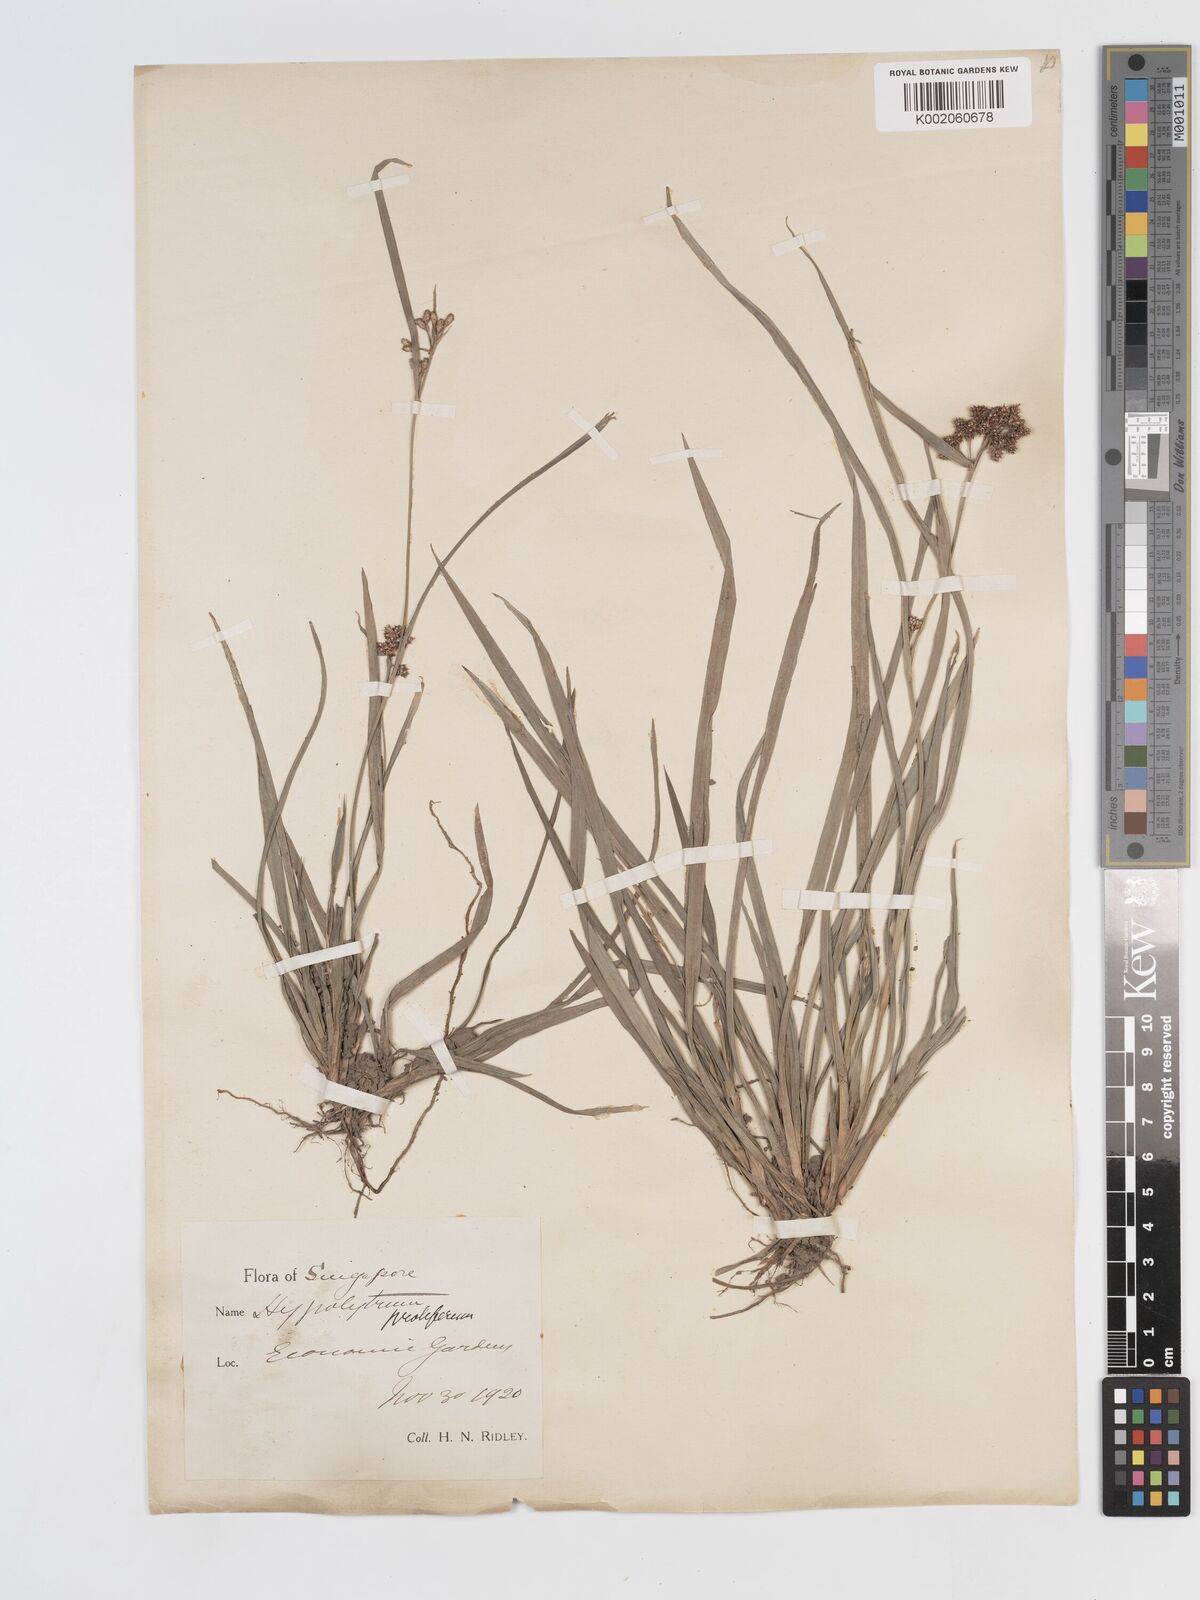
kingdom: Plantae
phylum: Tracheophyta
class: Liliopsida
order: Poales
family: Cyperaceae
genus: Hypolytrum
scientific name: Hypolytrum nemorum
